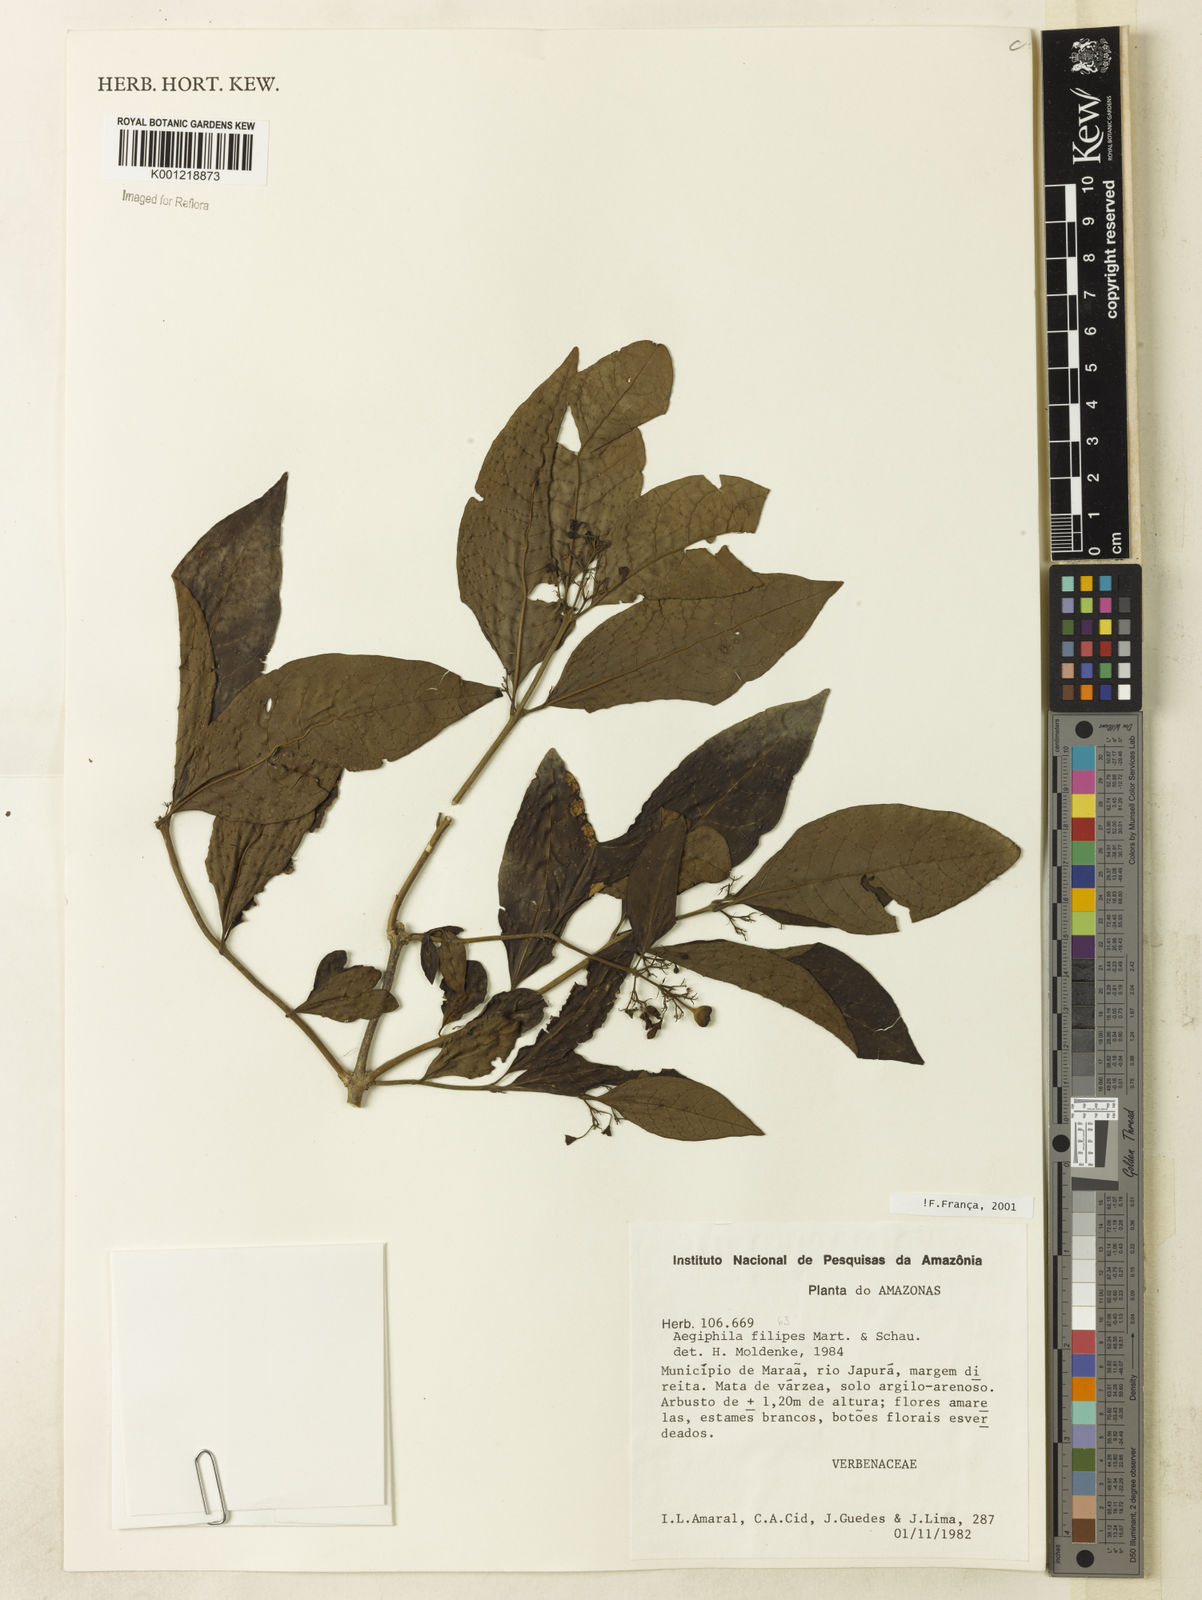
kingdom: Plantae
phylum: Tracheophyta
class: Magnoliopsida
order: Lamiales
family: Lamiaceae
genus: Aegiphila
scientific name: Aegiphila filipes
